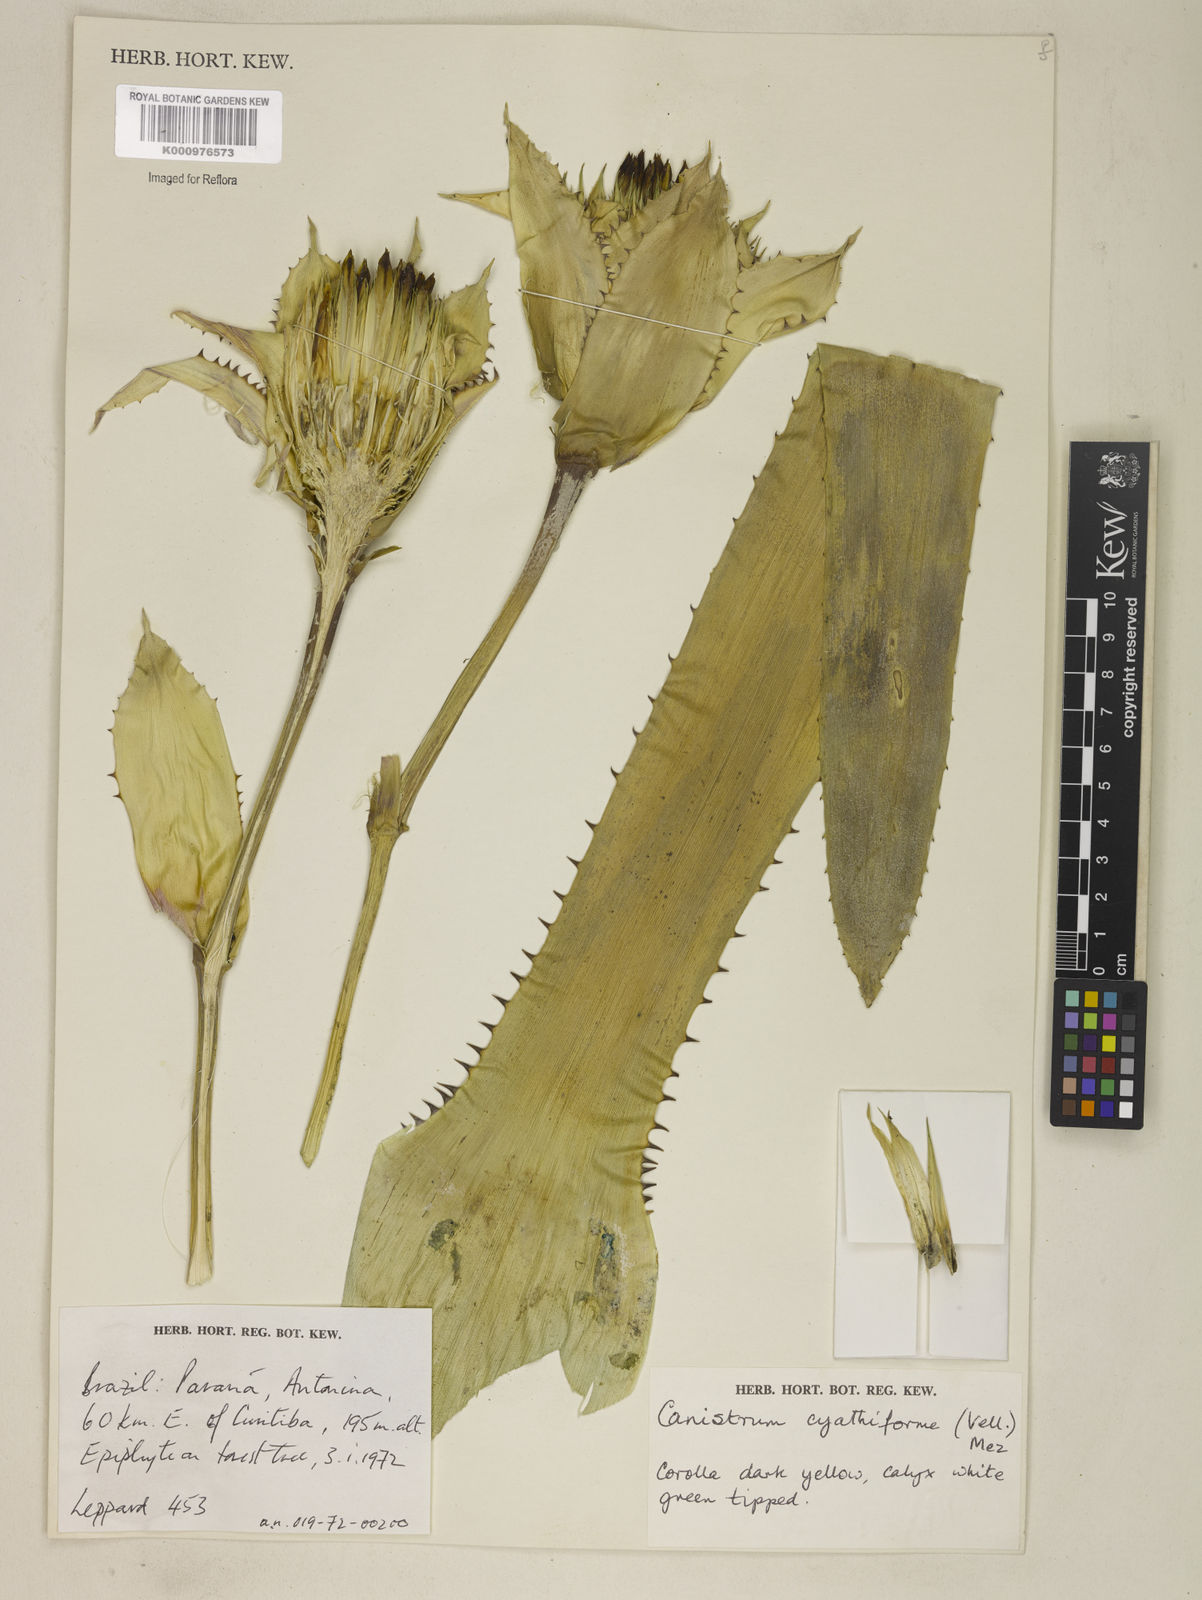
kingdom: Plantae
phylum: Tracheophyta
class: Liliopsida
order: Poales
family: Bromeliaceae
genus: Wittrockia
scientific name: Wittrockia cyathiformis
